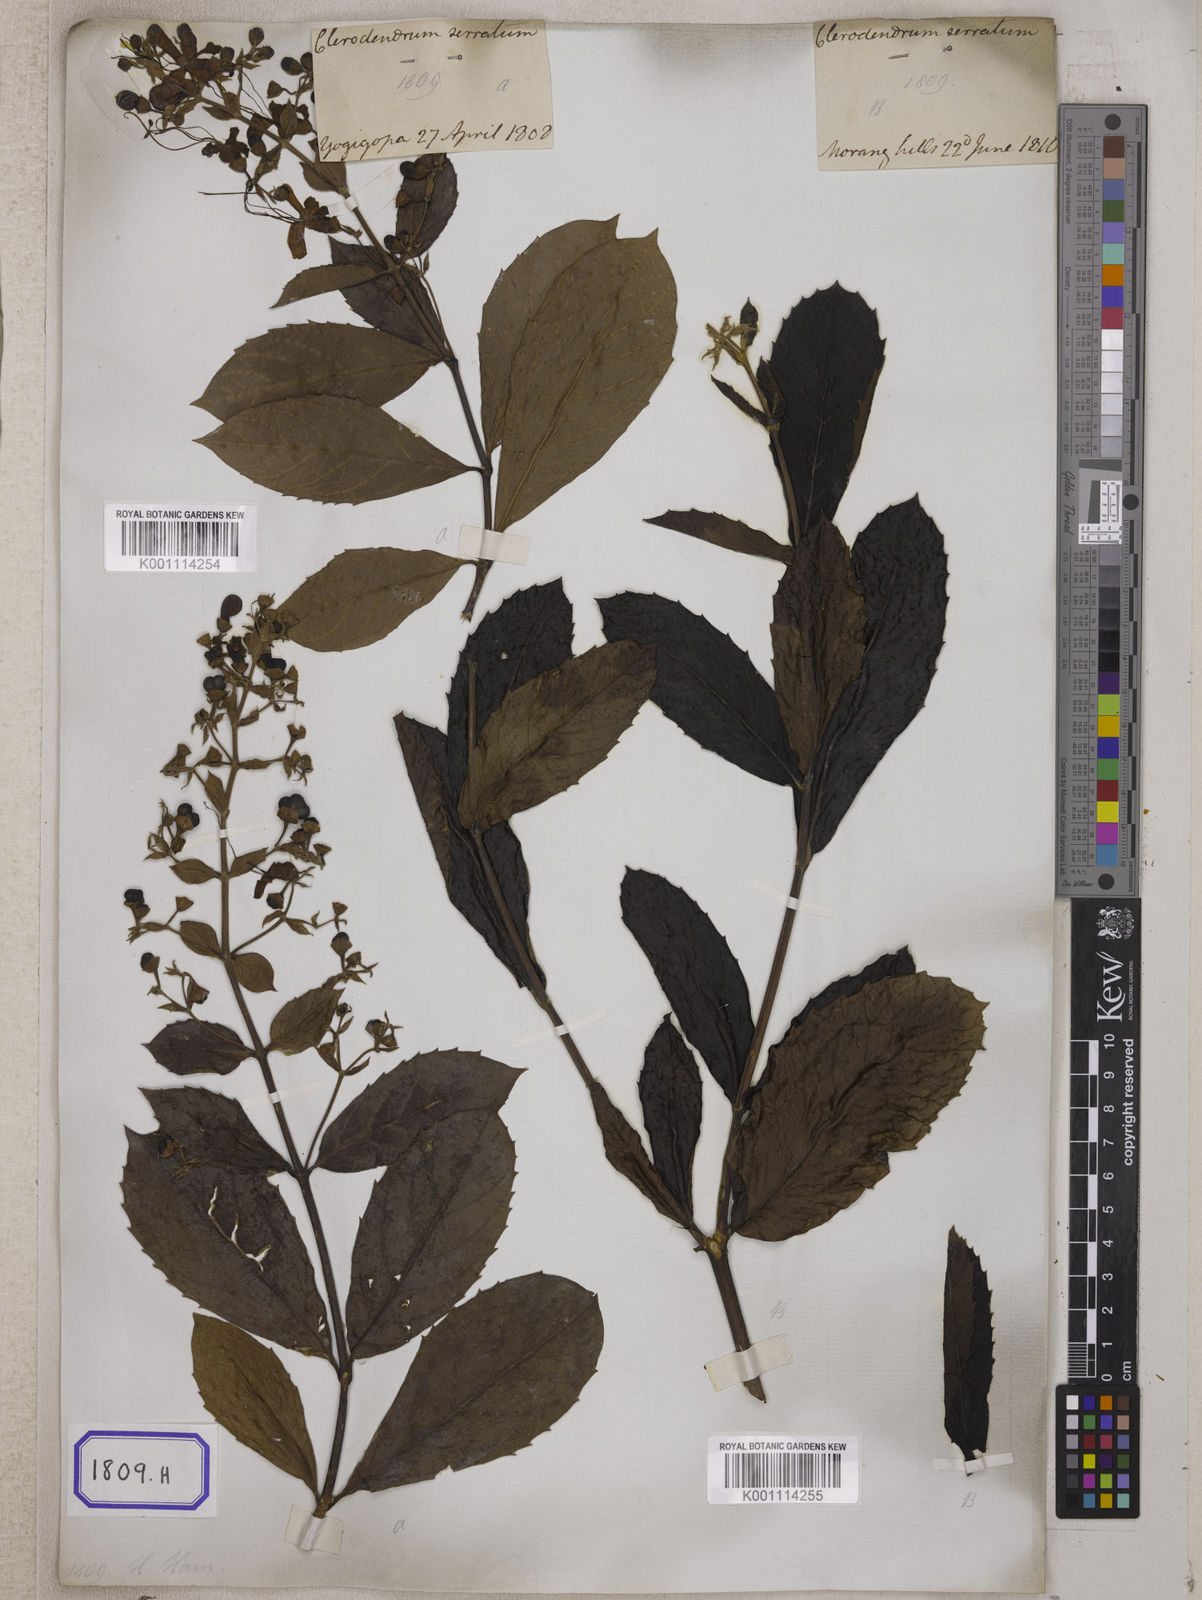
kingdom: Plantae
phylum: Tracheophyta
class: Magnoliopsida
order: Lamiales
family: Lamiaceae
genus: Clerodendrum
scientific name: Clerodendrum
